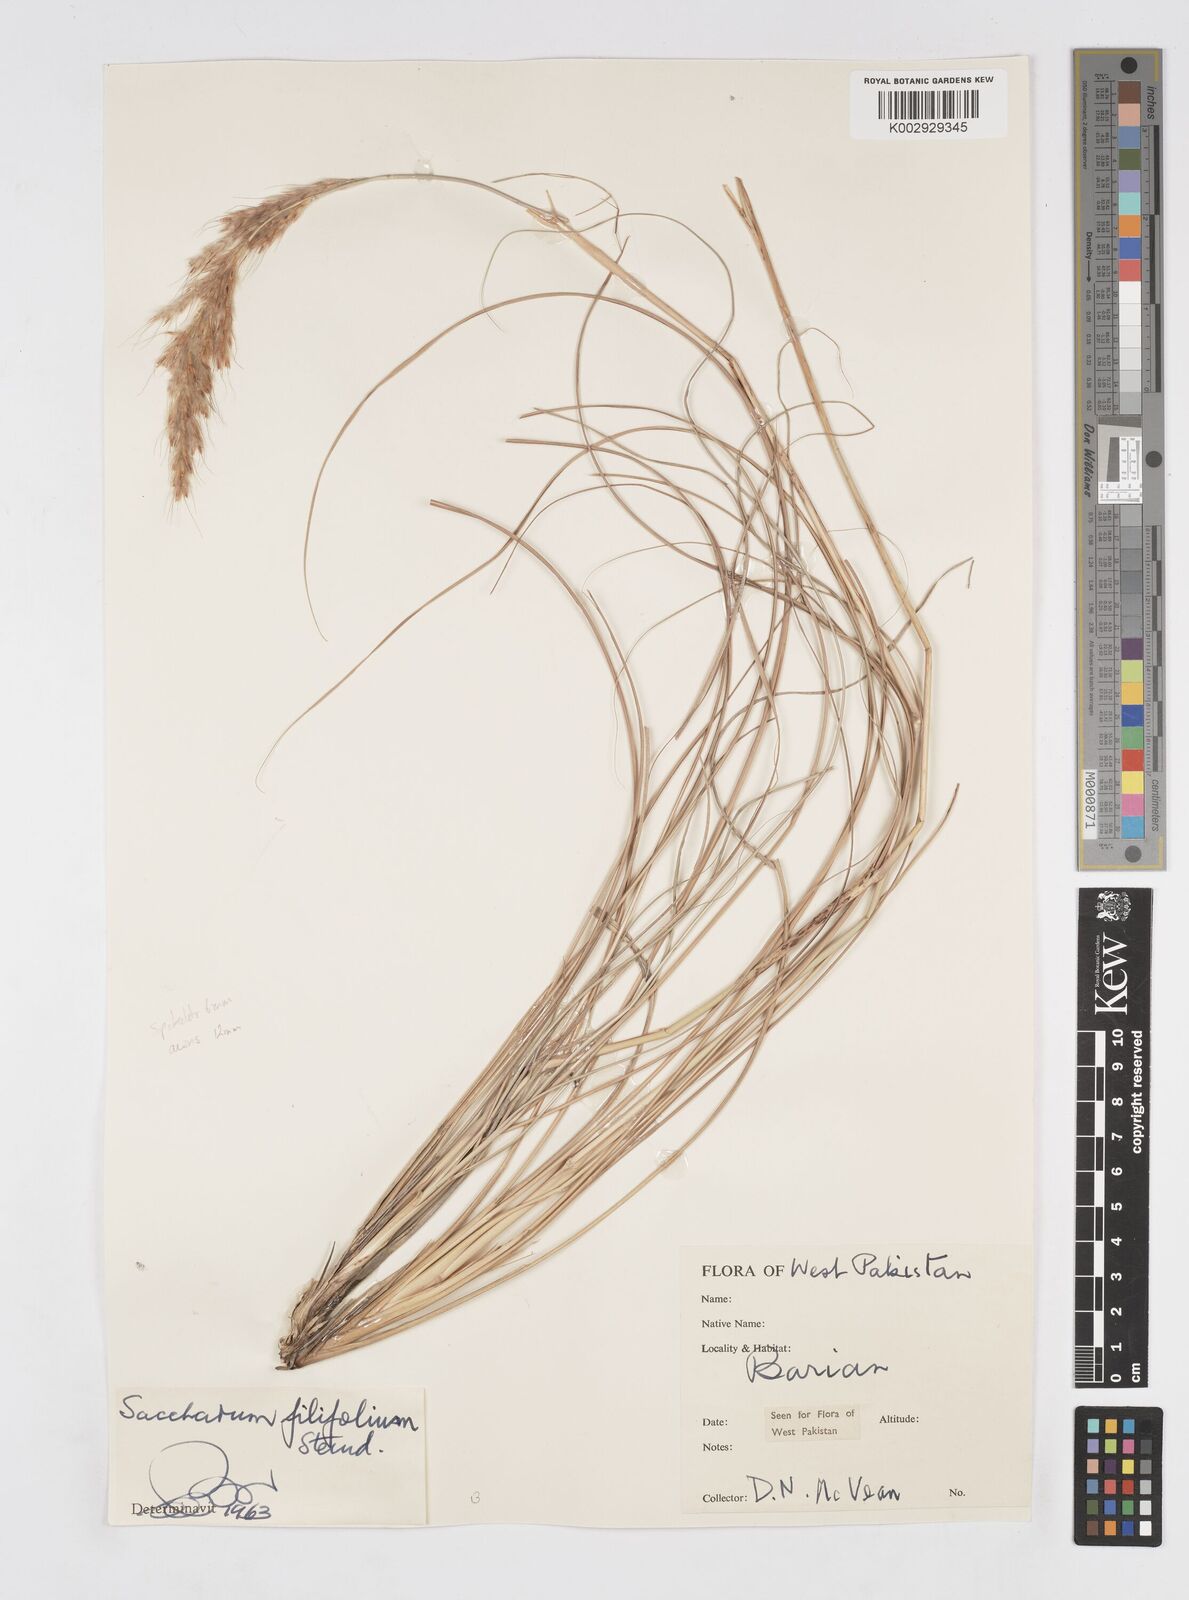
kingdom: Plantae
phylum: Tracheophyta
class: Liliopsida
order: Poales
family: Poaceae
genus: Saccharum
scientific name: Saccharum filifolium
